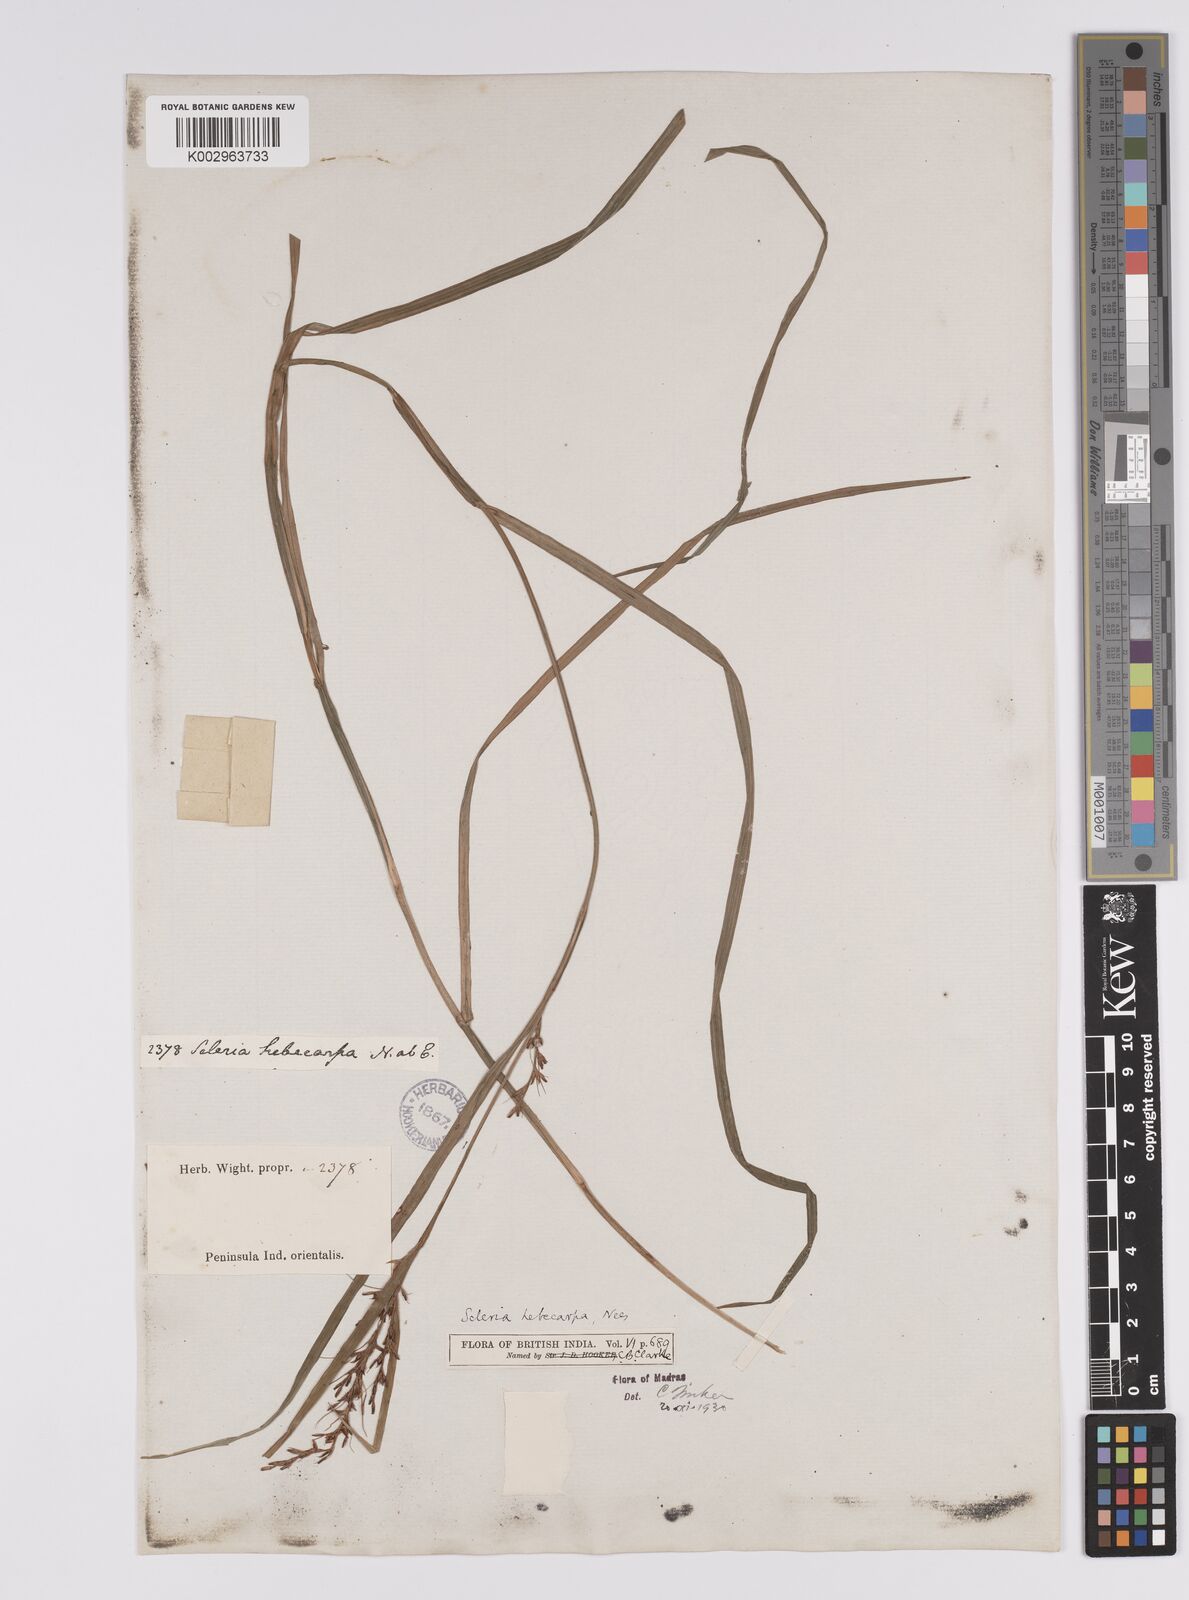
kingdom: Plantae
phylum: Tracheophyta
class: Liliopsida
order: Poales
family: Cyperaceae
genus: Scleria
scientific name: Scleria levis
